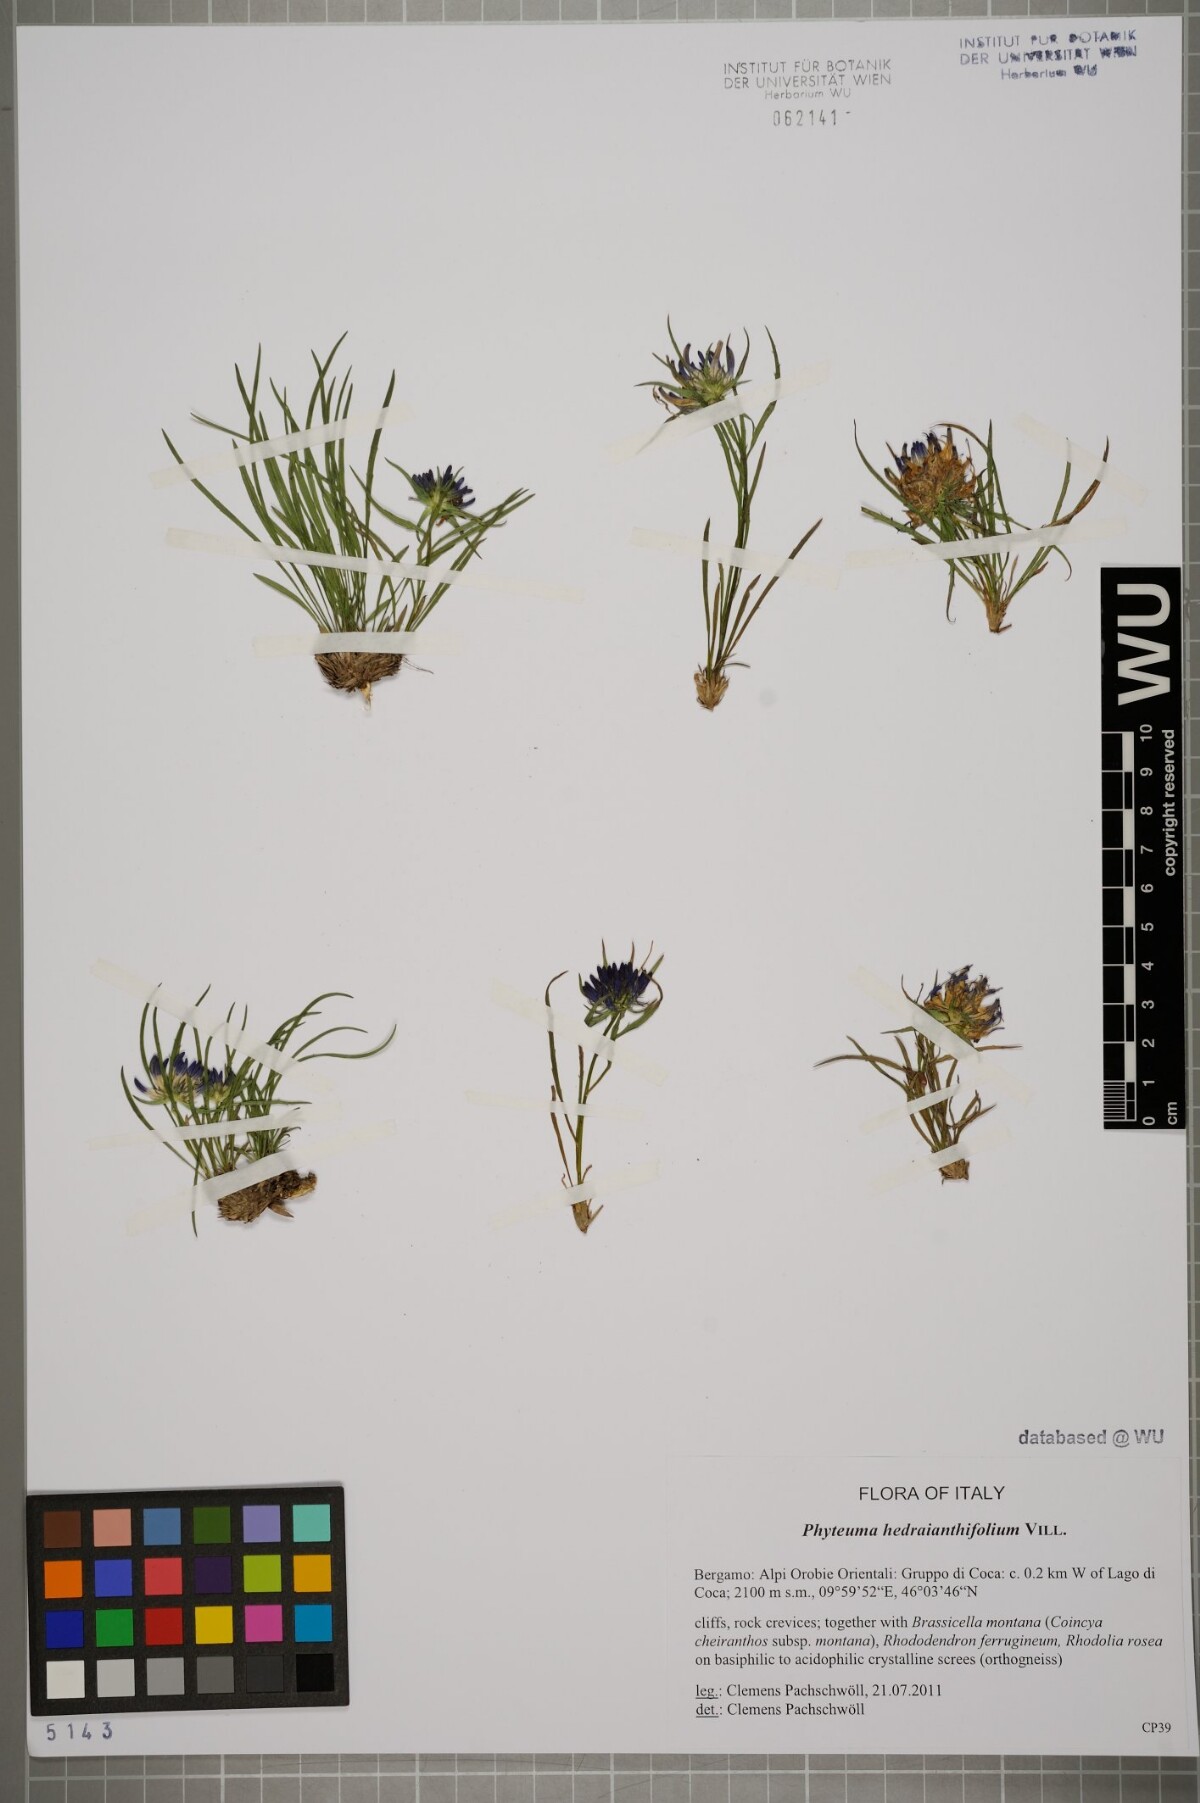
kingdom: Plantae
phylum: Tracheophyta
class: Magnoliopsida
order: Asterales
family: Campanulaceae
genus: Phyteuma
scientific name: Phyteuma hedraianthifolium
